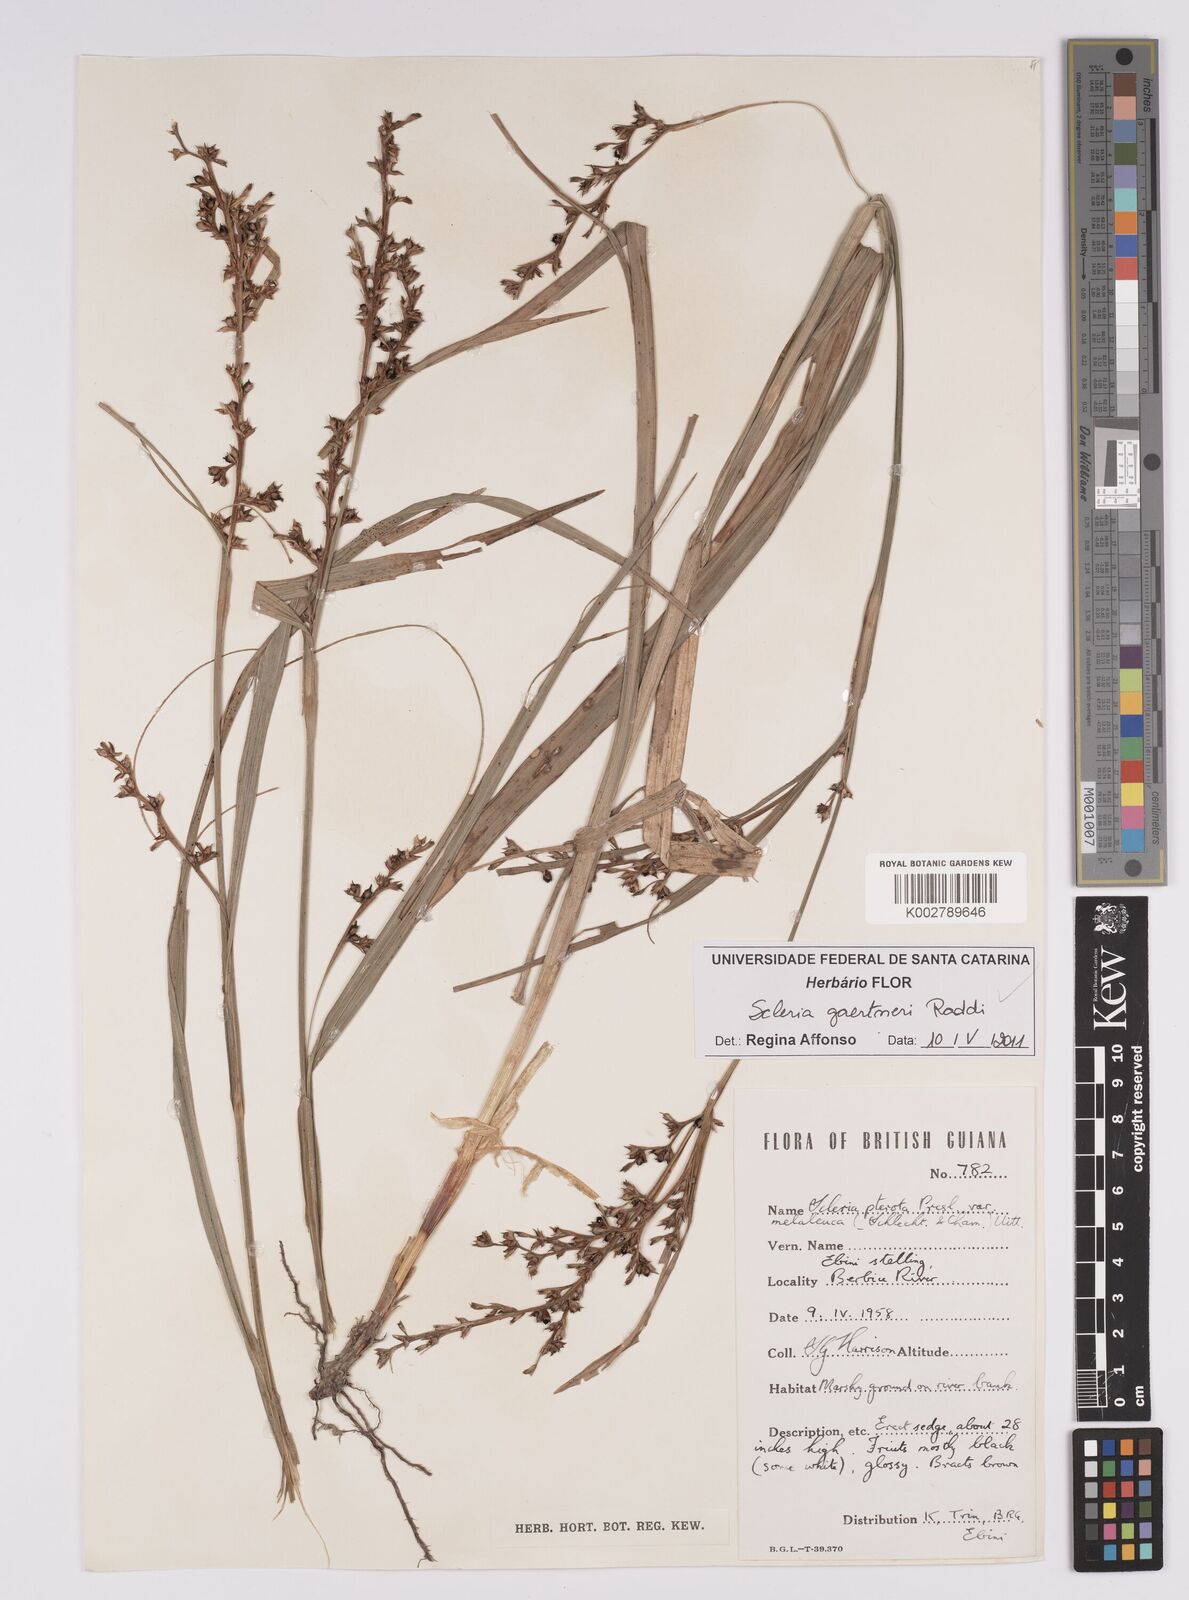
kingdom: Plantae
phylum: Tracheophyta
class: Liliopsida
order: Poales
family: Cyperaceae
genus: Scleria
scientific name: Scleria gaertneri
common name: Cortadera blanca
